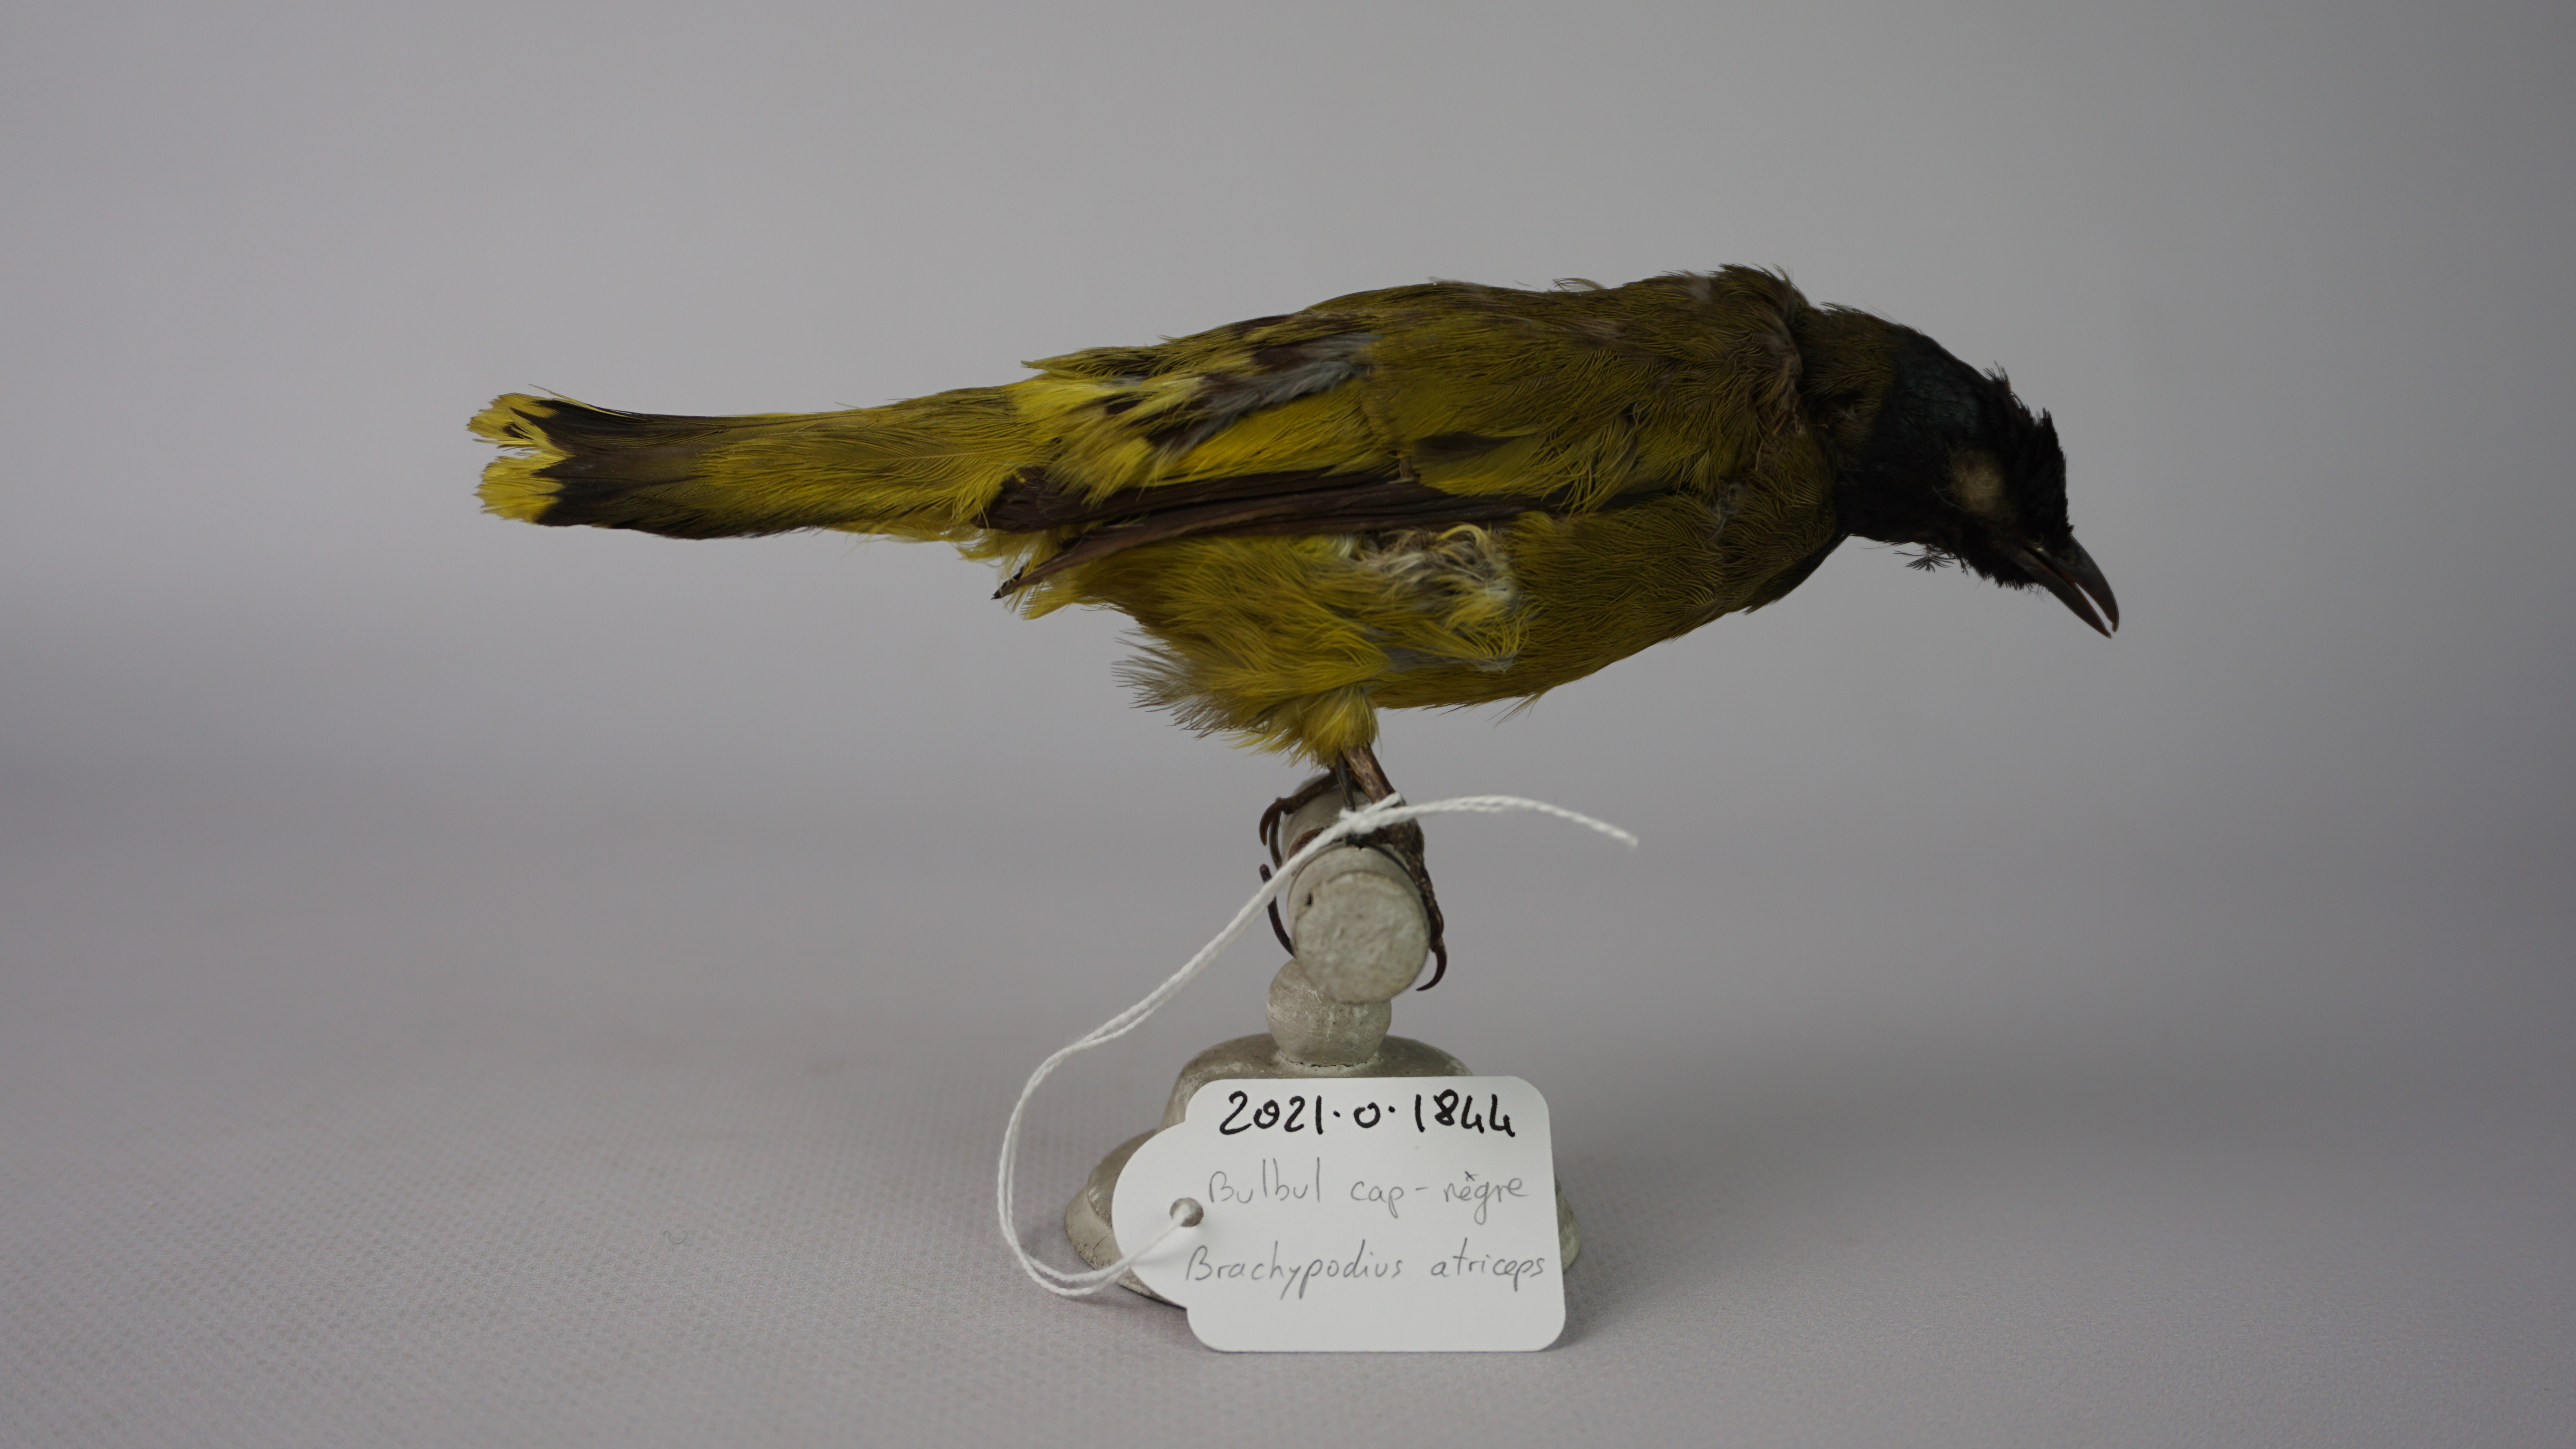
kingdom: Animalia
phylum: Chordata
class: Aves
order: Passeriformes
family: Pycnonotidae
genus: Pycnonotus
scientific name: Pycnonotus atriceps
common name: Black-headed bulbul
